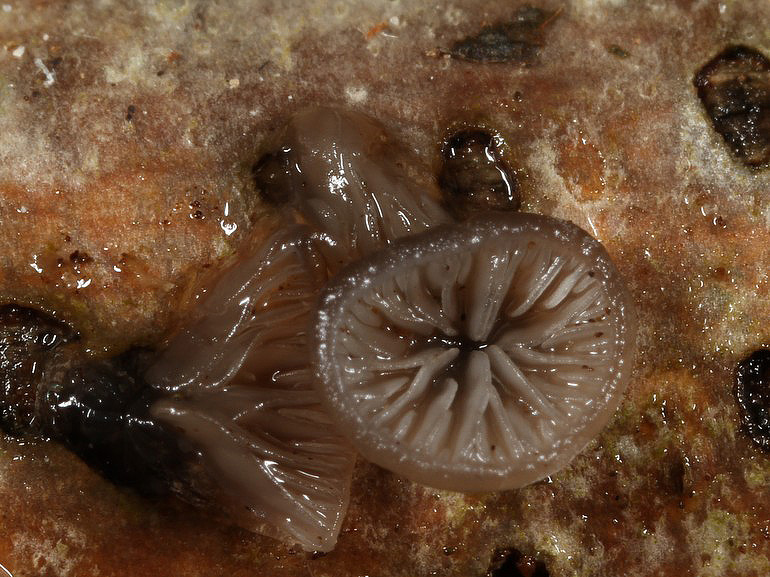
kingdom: Fungi
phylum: Basidiomycota
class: Agaricomycetes
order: Agaricales
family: Pleurotaceae
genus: Resupinatus
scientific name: Resupinatus applicatus
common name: lysfiltet barkhat
